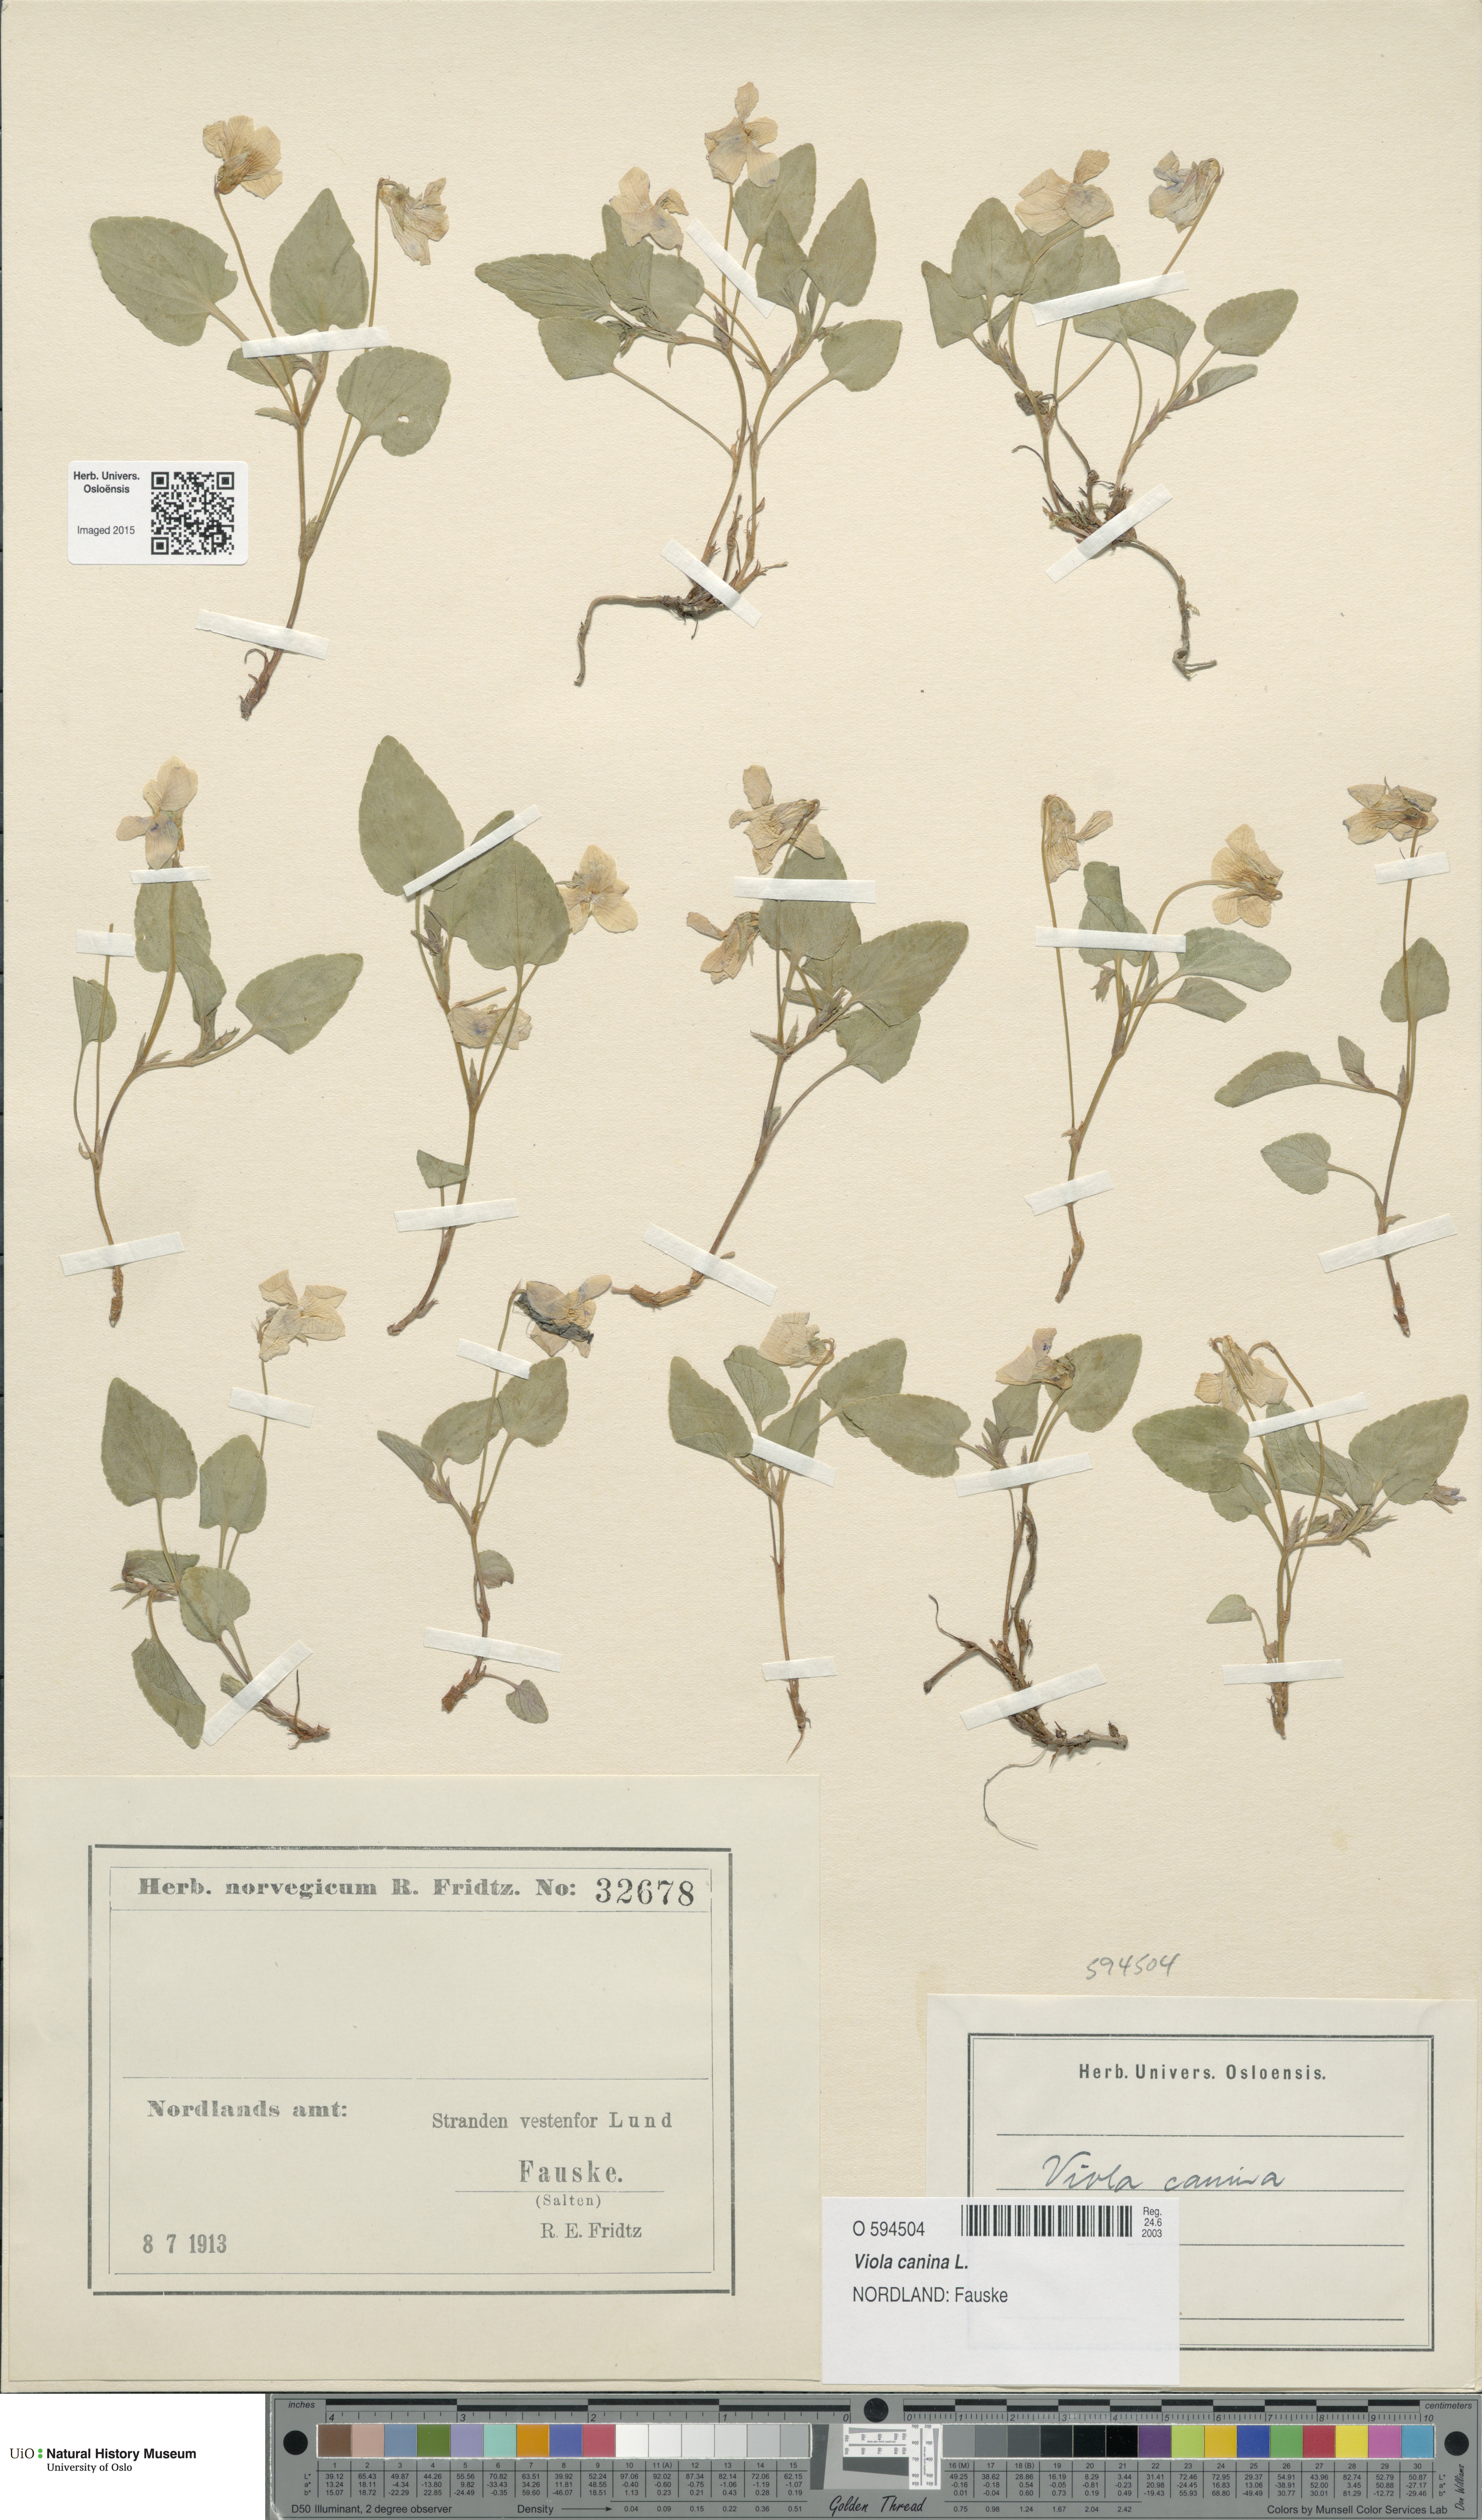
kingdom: Plantae
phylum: Tracheophyta
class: Magnoliopsida
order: Malpighiales
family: Violaceae
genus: Viola
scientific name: Viola canina
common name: Heath dog-violet
